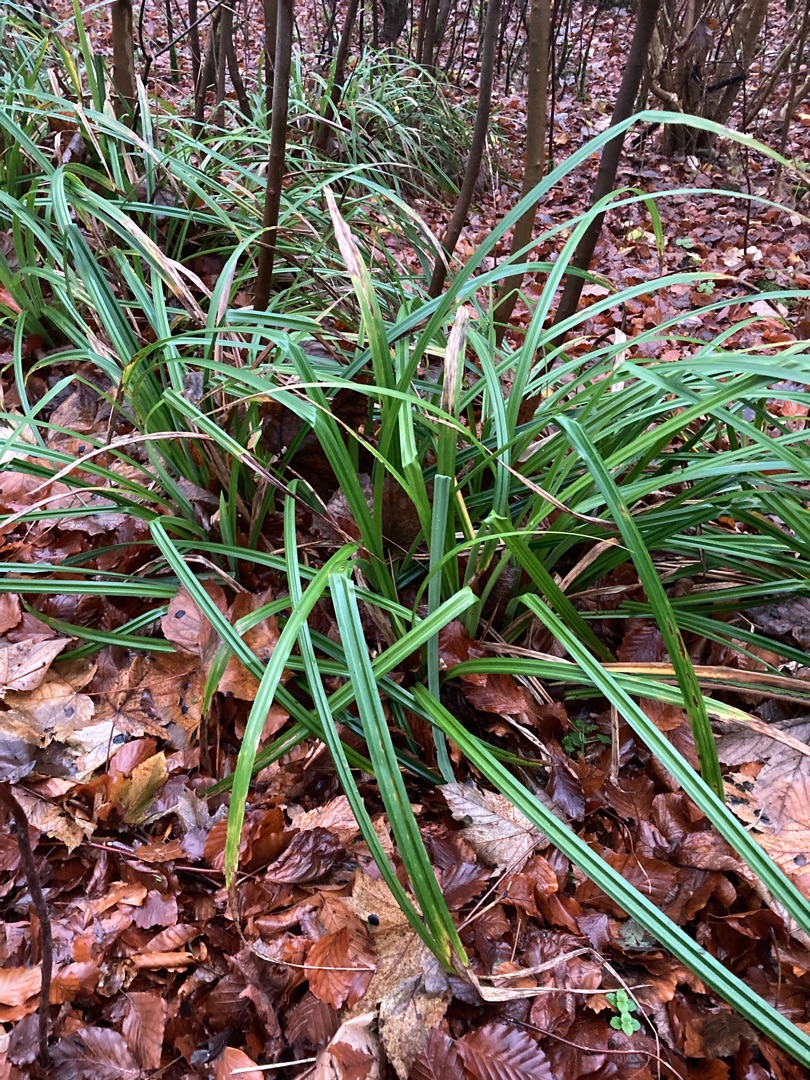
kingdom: Plantae
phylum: Tracheophyta
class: Liliopsida
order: Poales
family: Cyperaceae
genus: Carex
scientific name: Carex pendula
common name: Kæmpe-star
